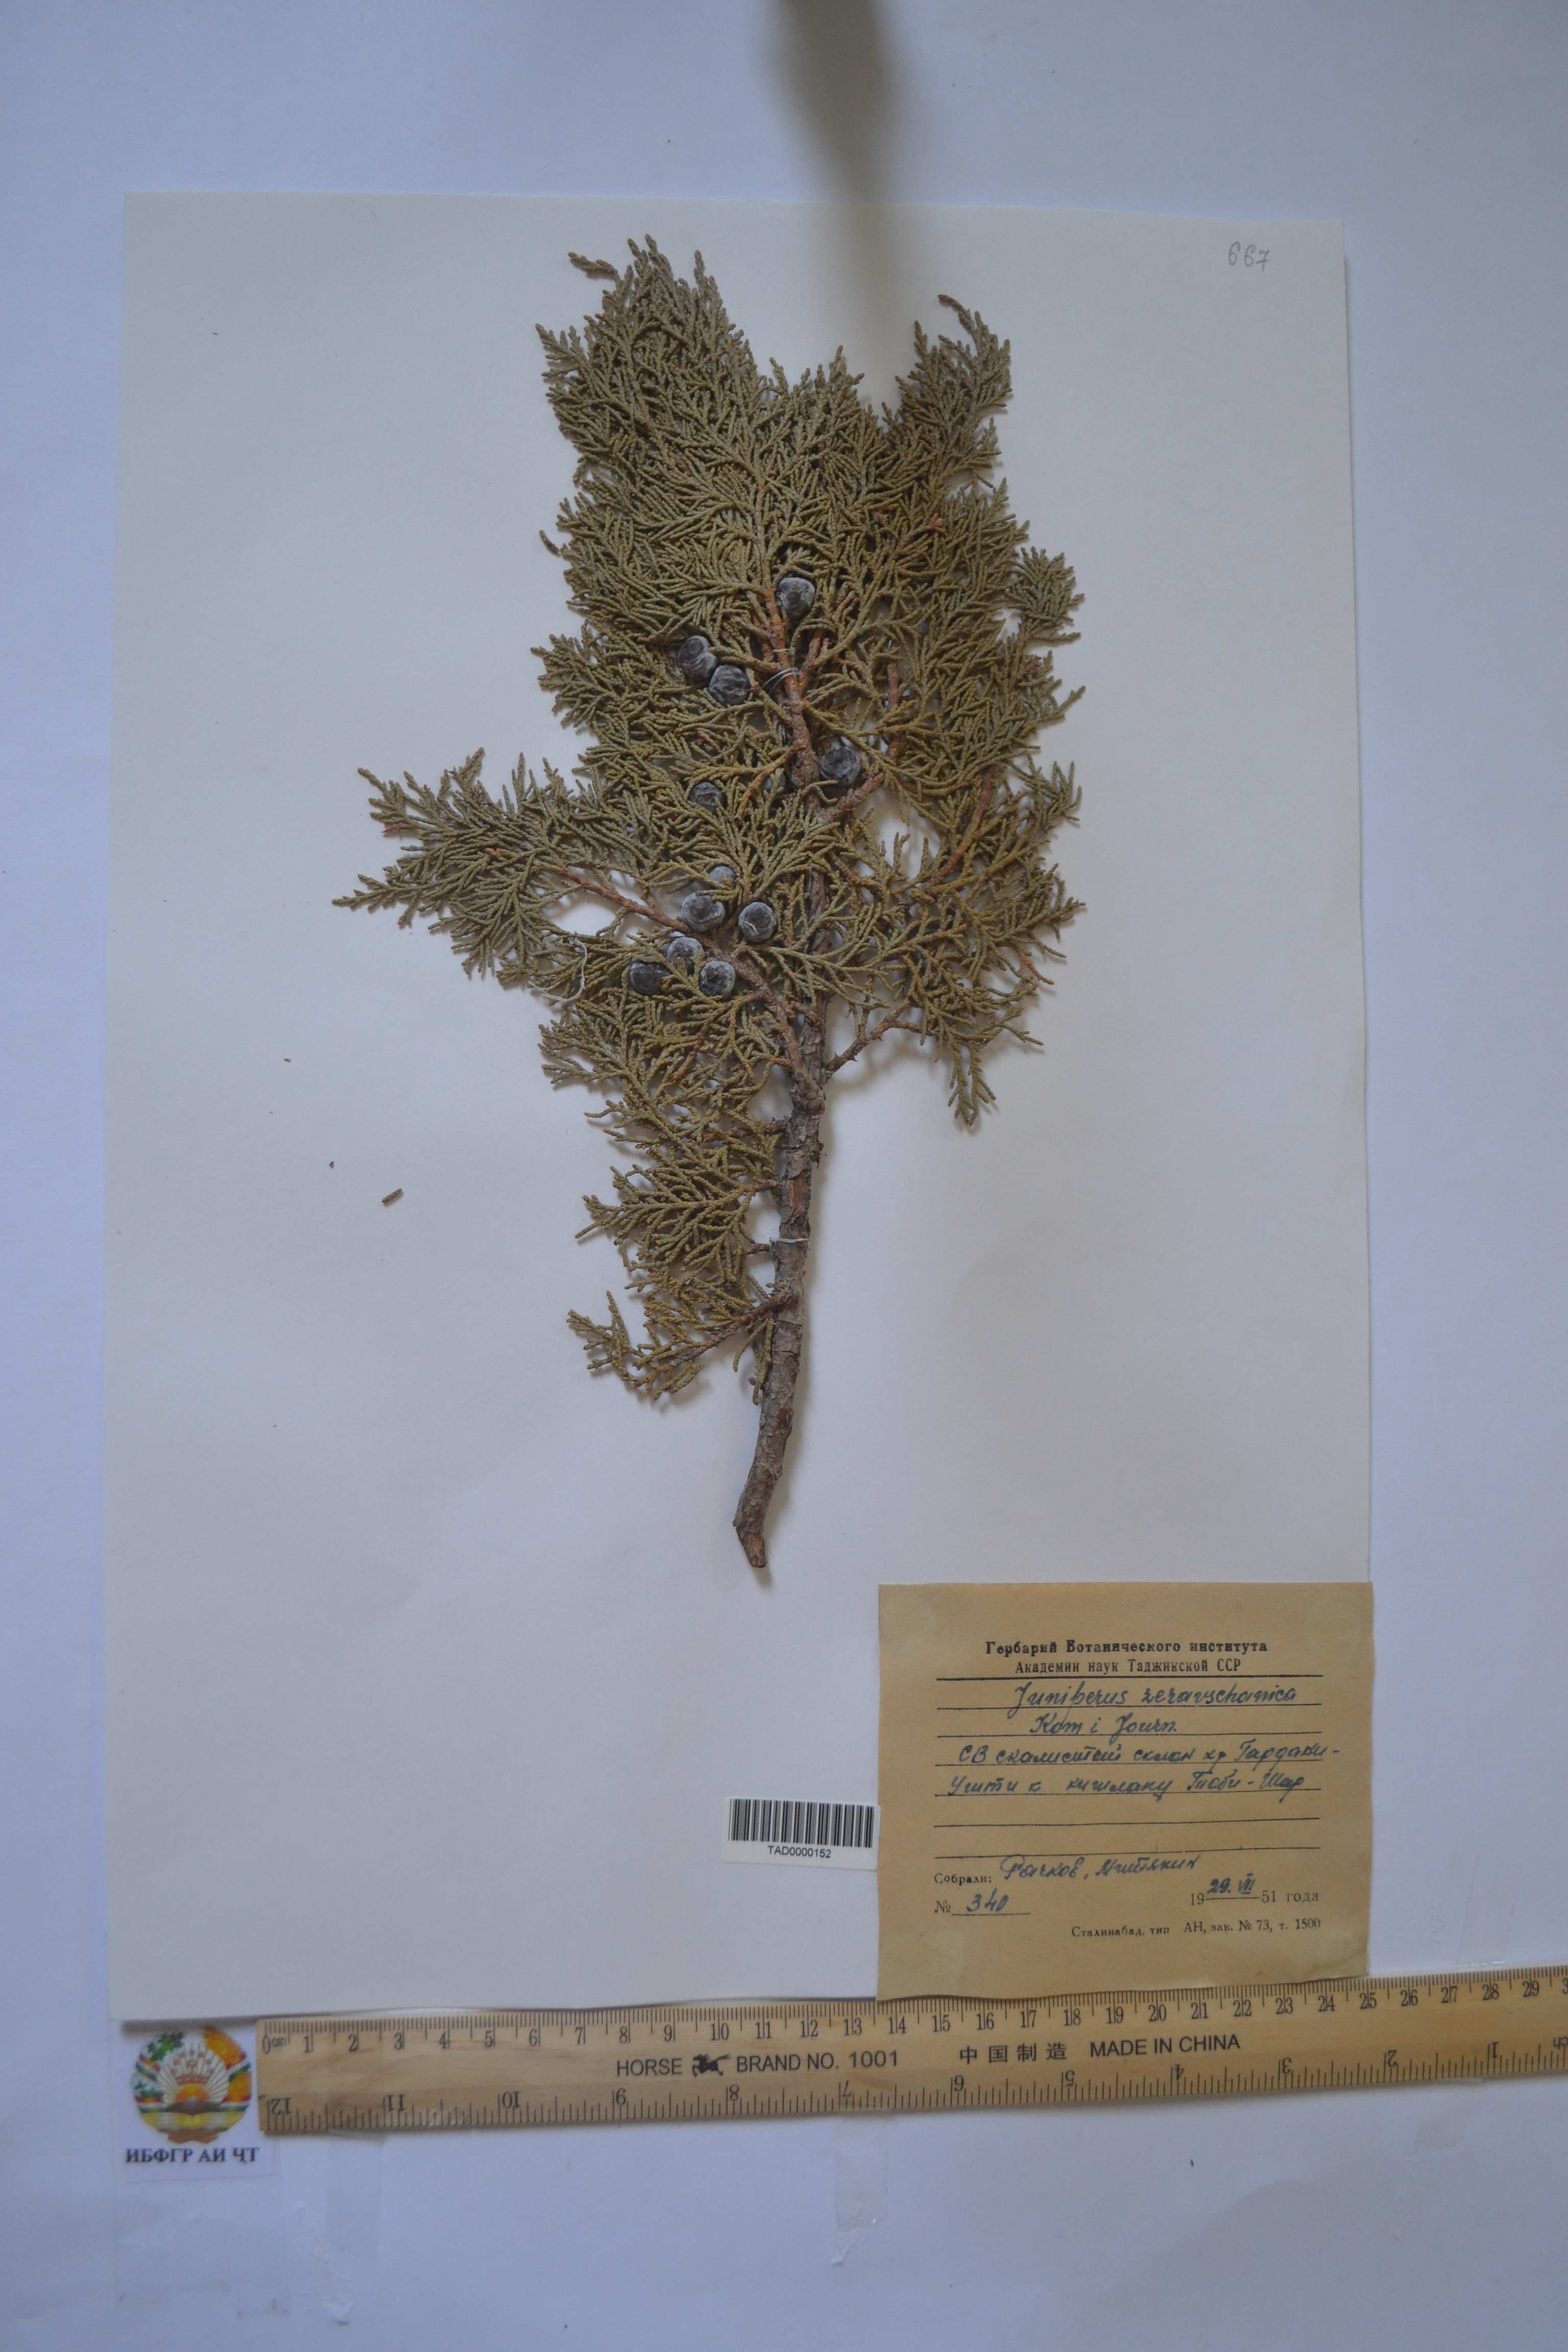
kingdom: Plantae
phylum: Tracheophyta
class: Pinopsida
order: Pinales
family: Cupressaceae
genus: Juniperus
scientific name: Juniperus excelsa
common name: Crimean juniper
